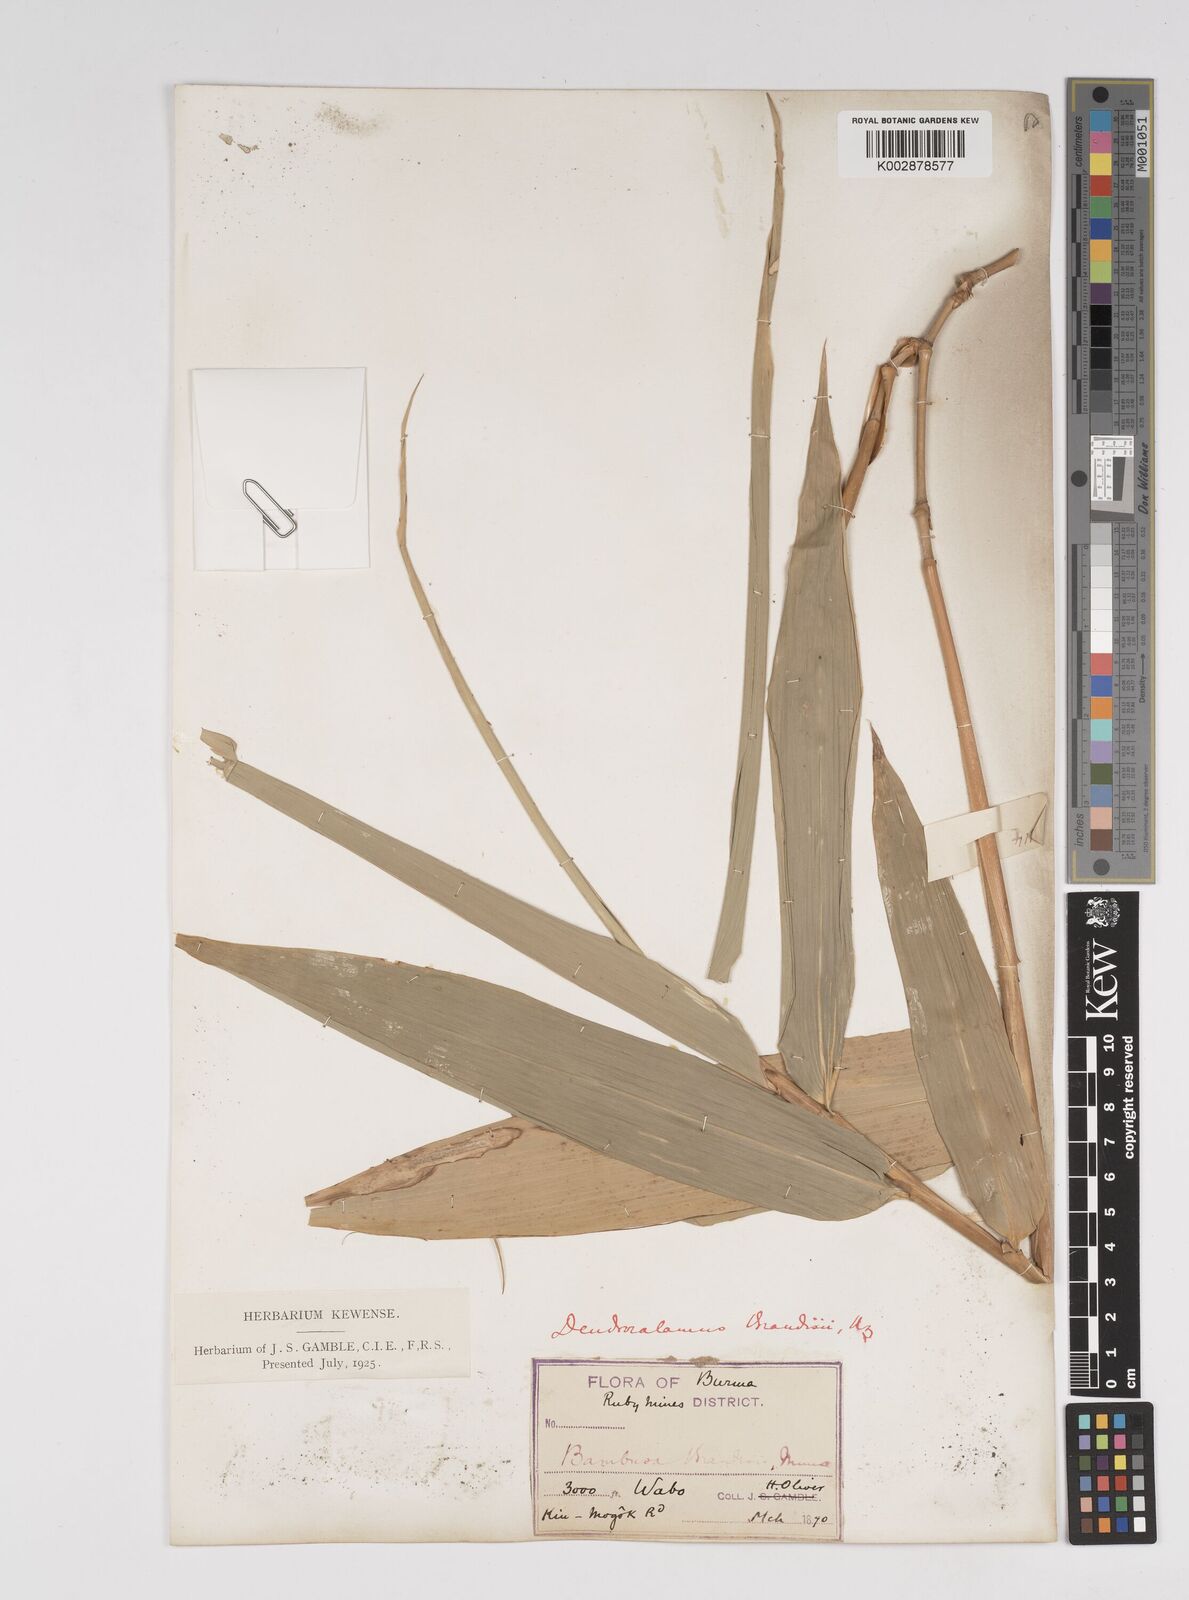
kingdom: Plantae
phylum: Tracheophyta
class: Liliopsida
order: Poales
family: Poaceae
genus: Dendrocalamus
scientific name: Dendrocalamus brandisii
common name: Velvetleaf bamboo
